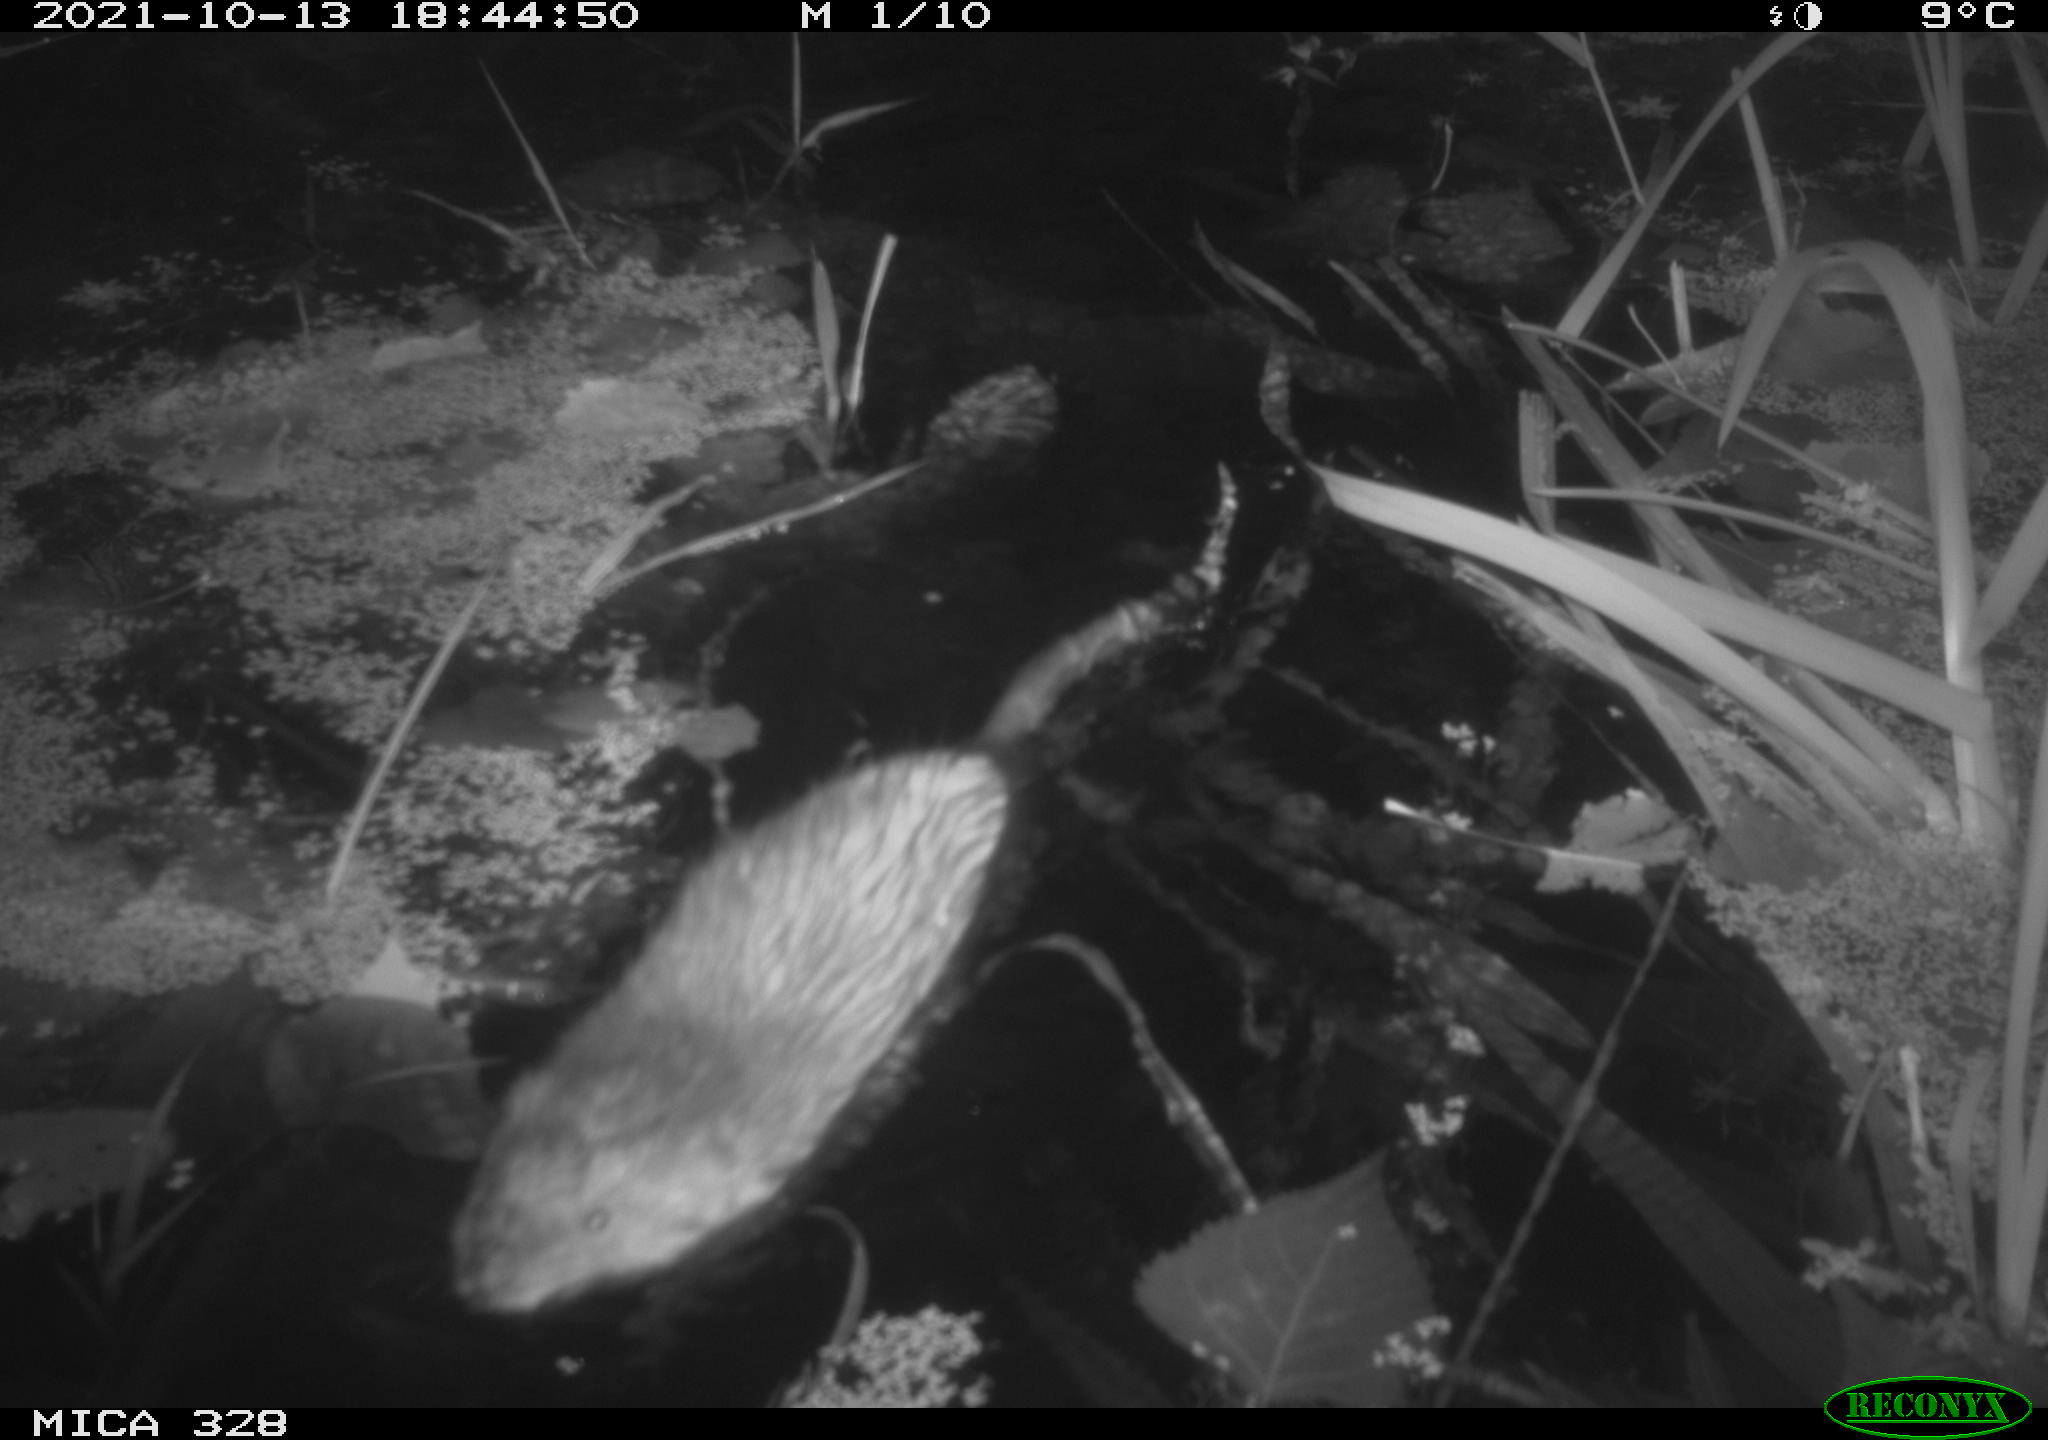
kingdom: Animalia
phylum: Chordata
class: Mammalia
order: Rodentia
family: Cricetidae
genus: Ondatra
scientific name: Ondatra zibethicus
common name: Muskrat
